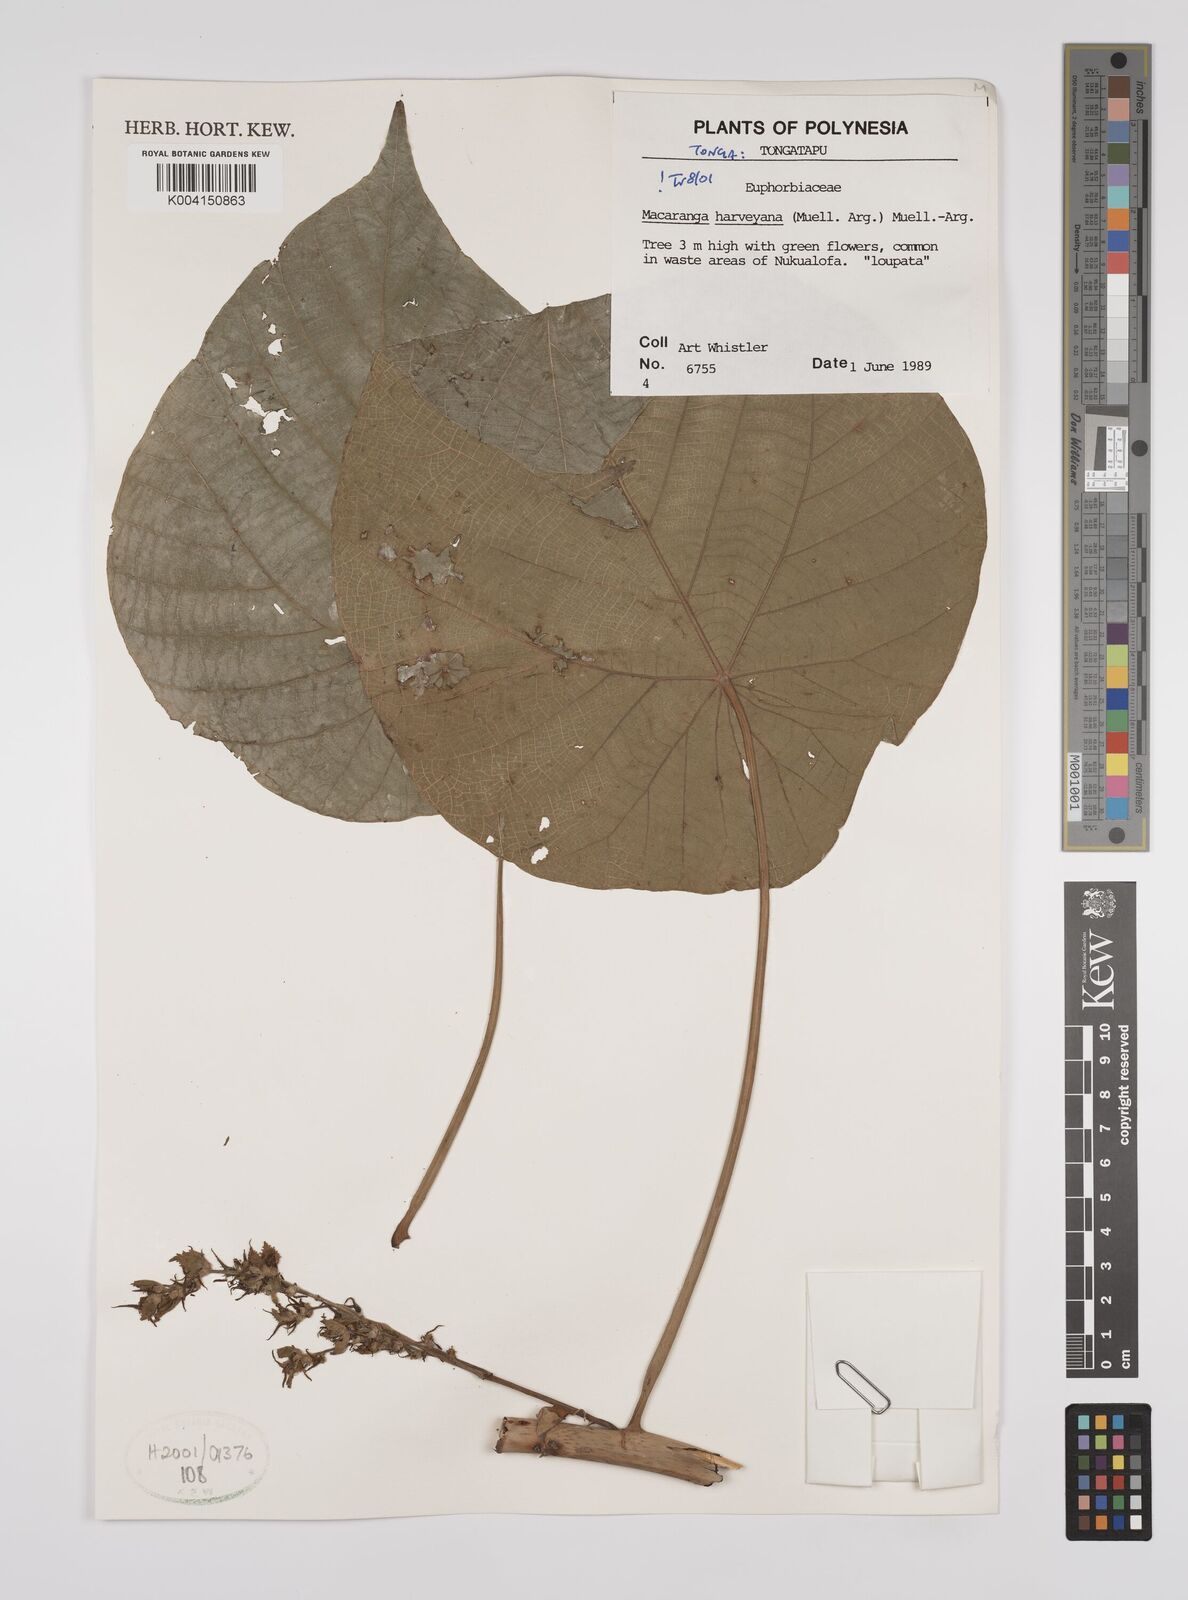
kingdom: Plantae
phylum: Tracheophyta
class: Magnoliopsida
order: Malpighiales
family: Euphorbiaceae
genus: Macaranga
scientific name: Macaranga harveyana
